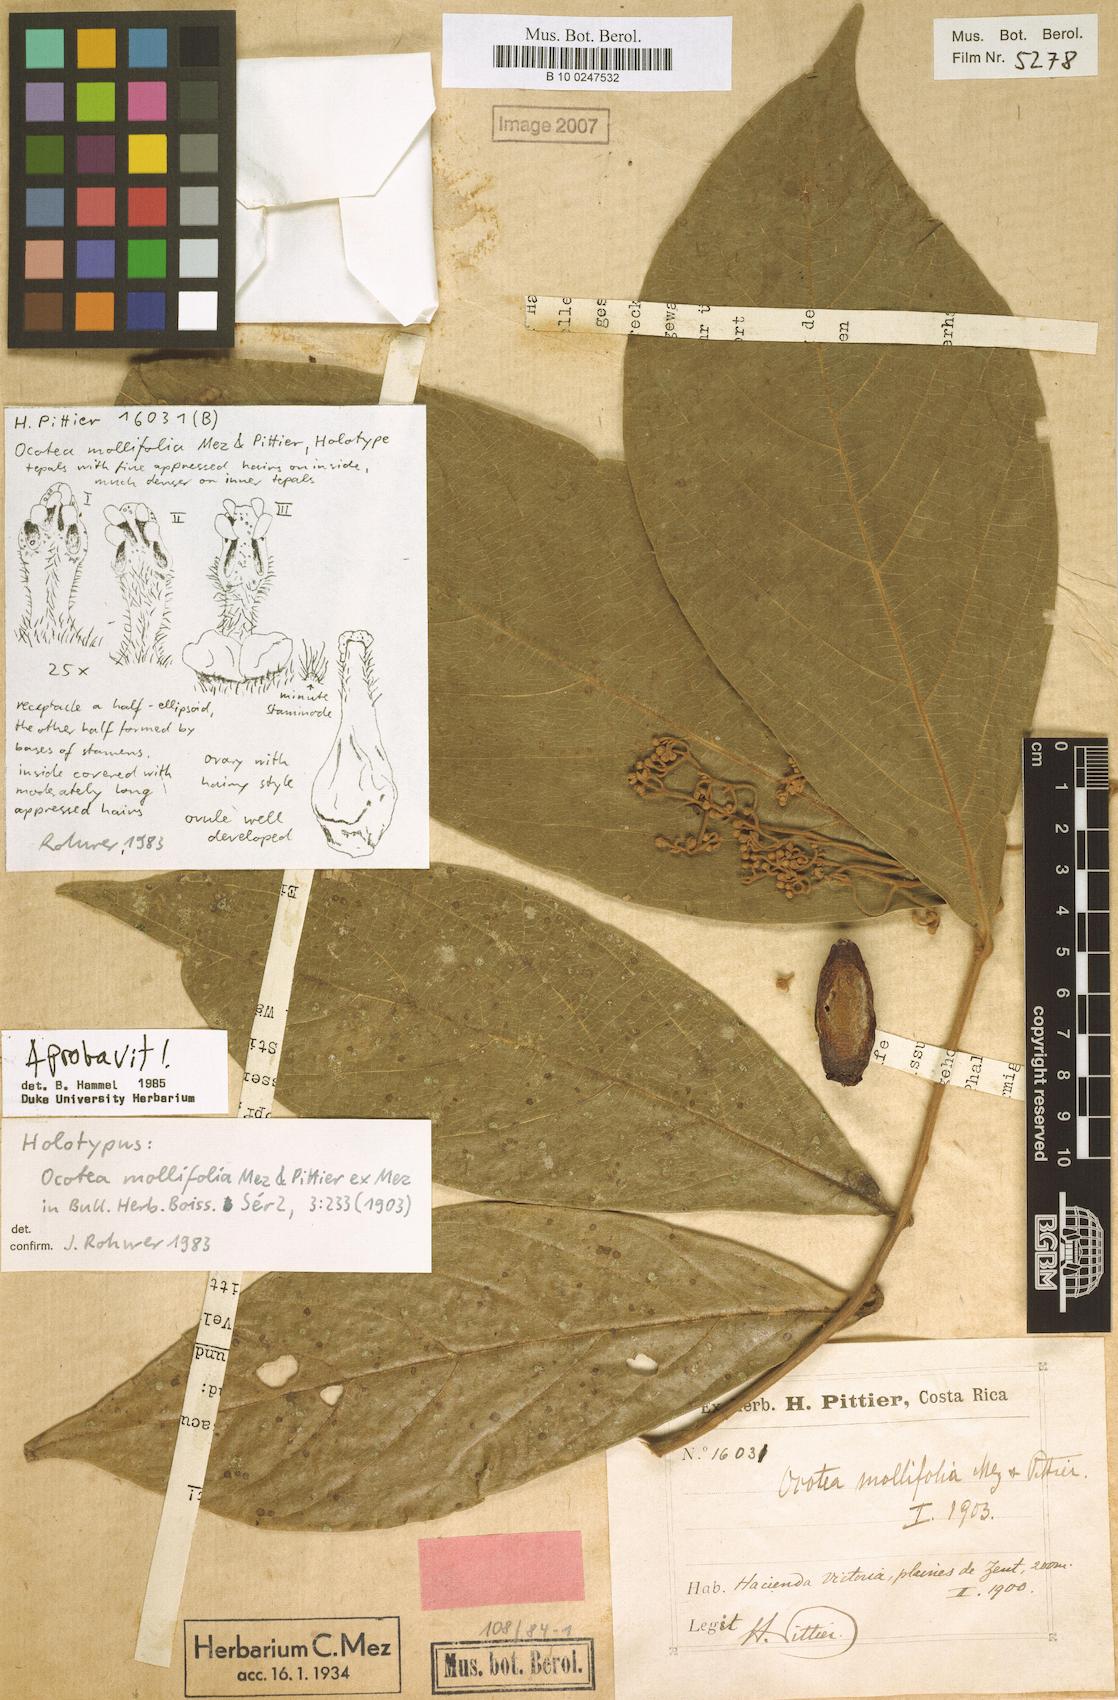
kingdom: Plantae
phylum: Tracheophyta
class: Magnoliopsida
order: Laurales
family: Lauraceae
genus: Ocotea
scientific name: Ocotea mollifolia
